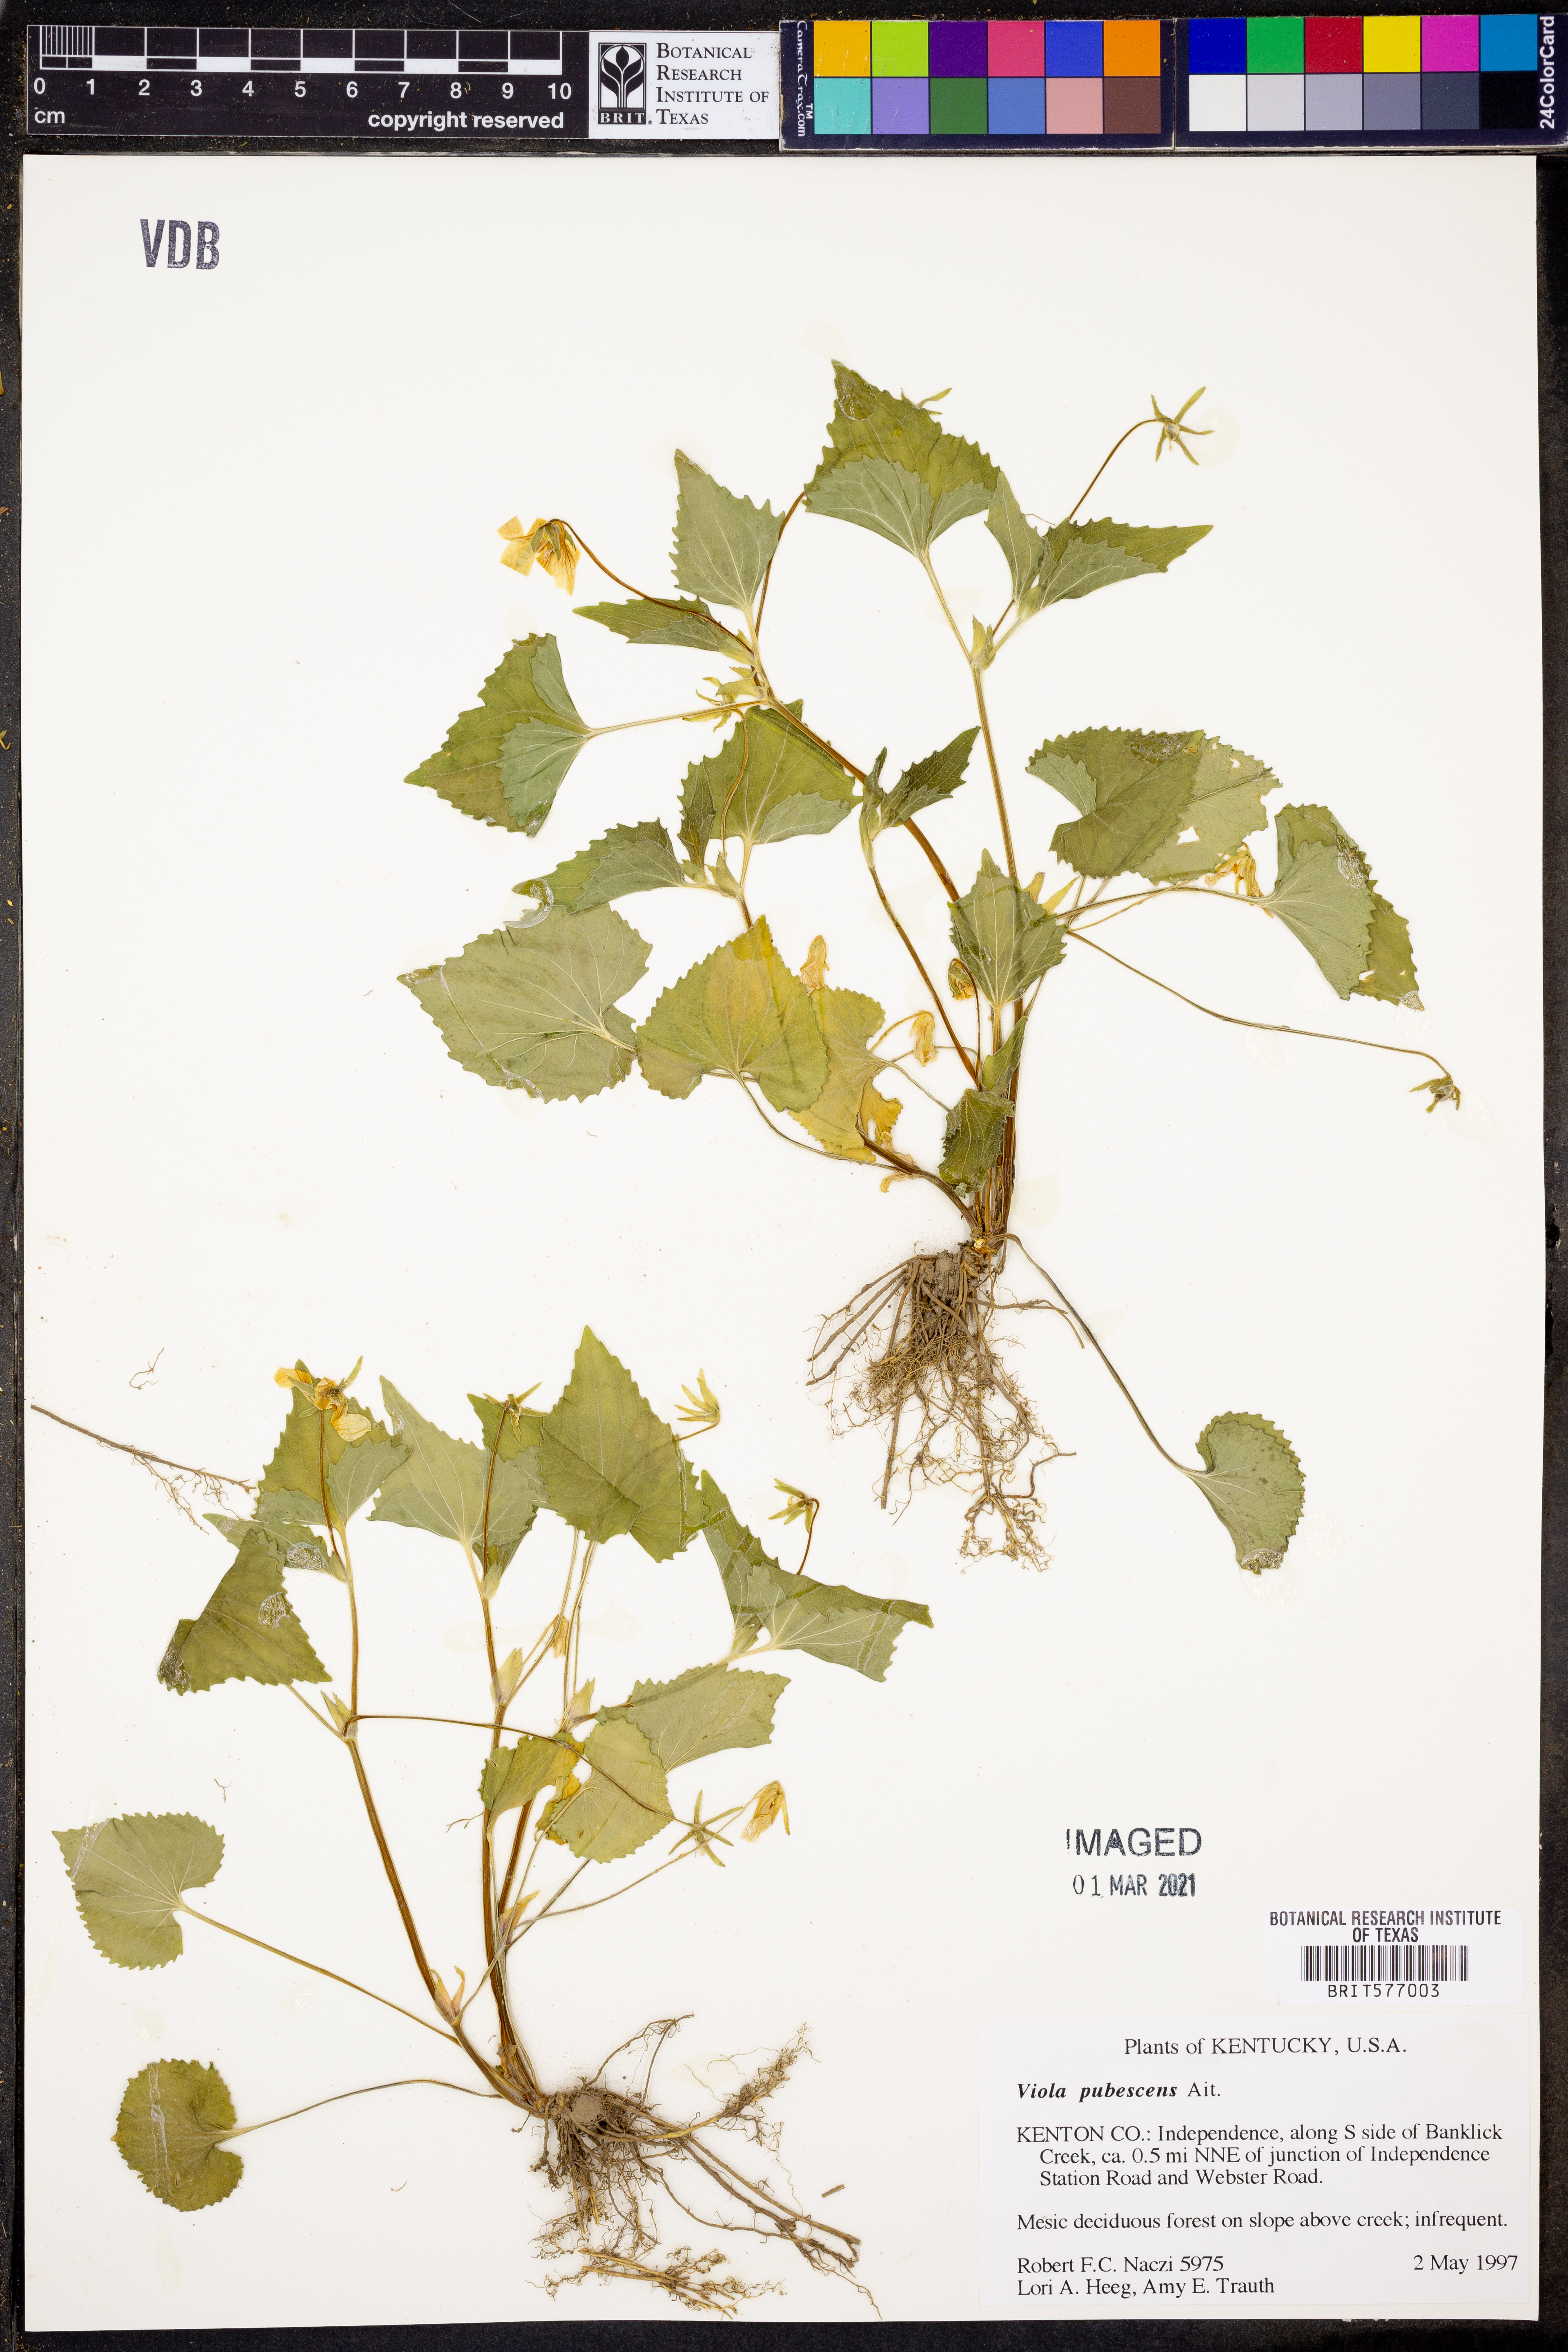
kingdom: Plantae
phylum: Tracheophyta
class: Magnoliopsida
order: Malpighiales
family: Violaceae
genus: Viola
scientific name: Viola pubescens
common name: Yellow forest violet
